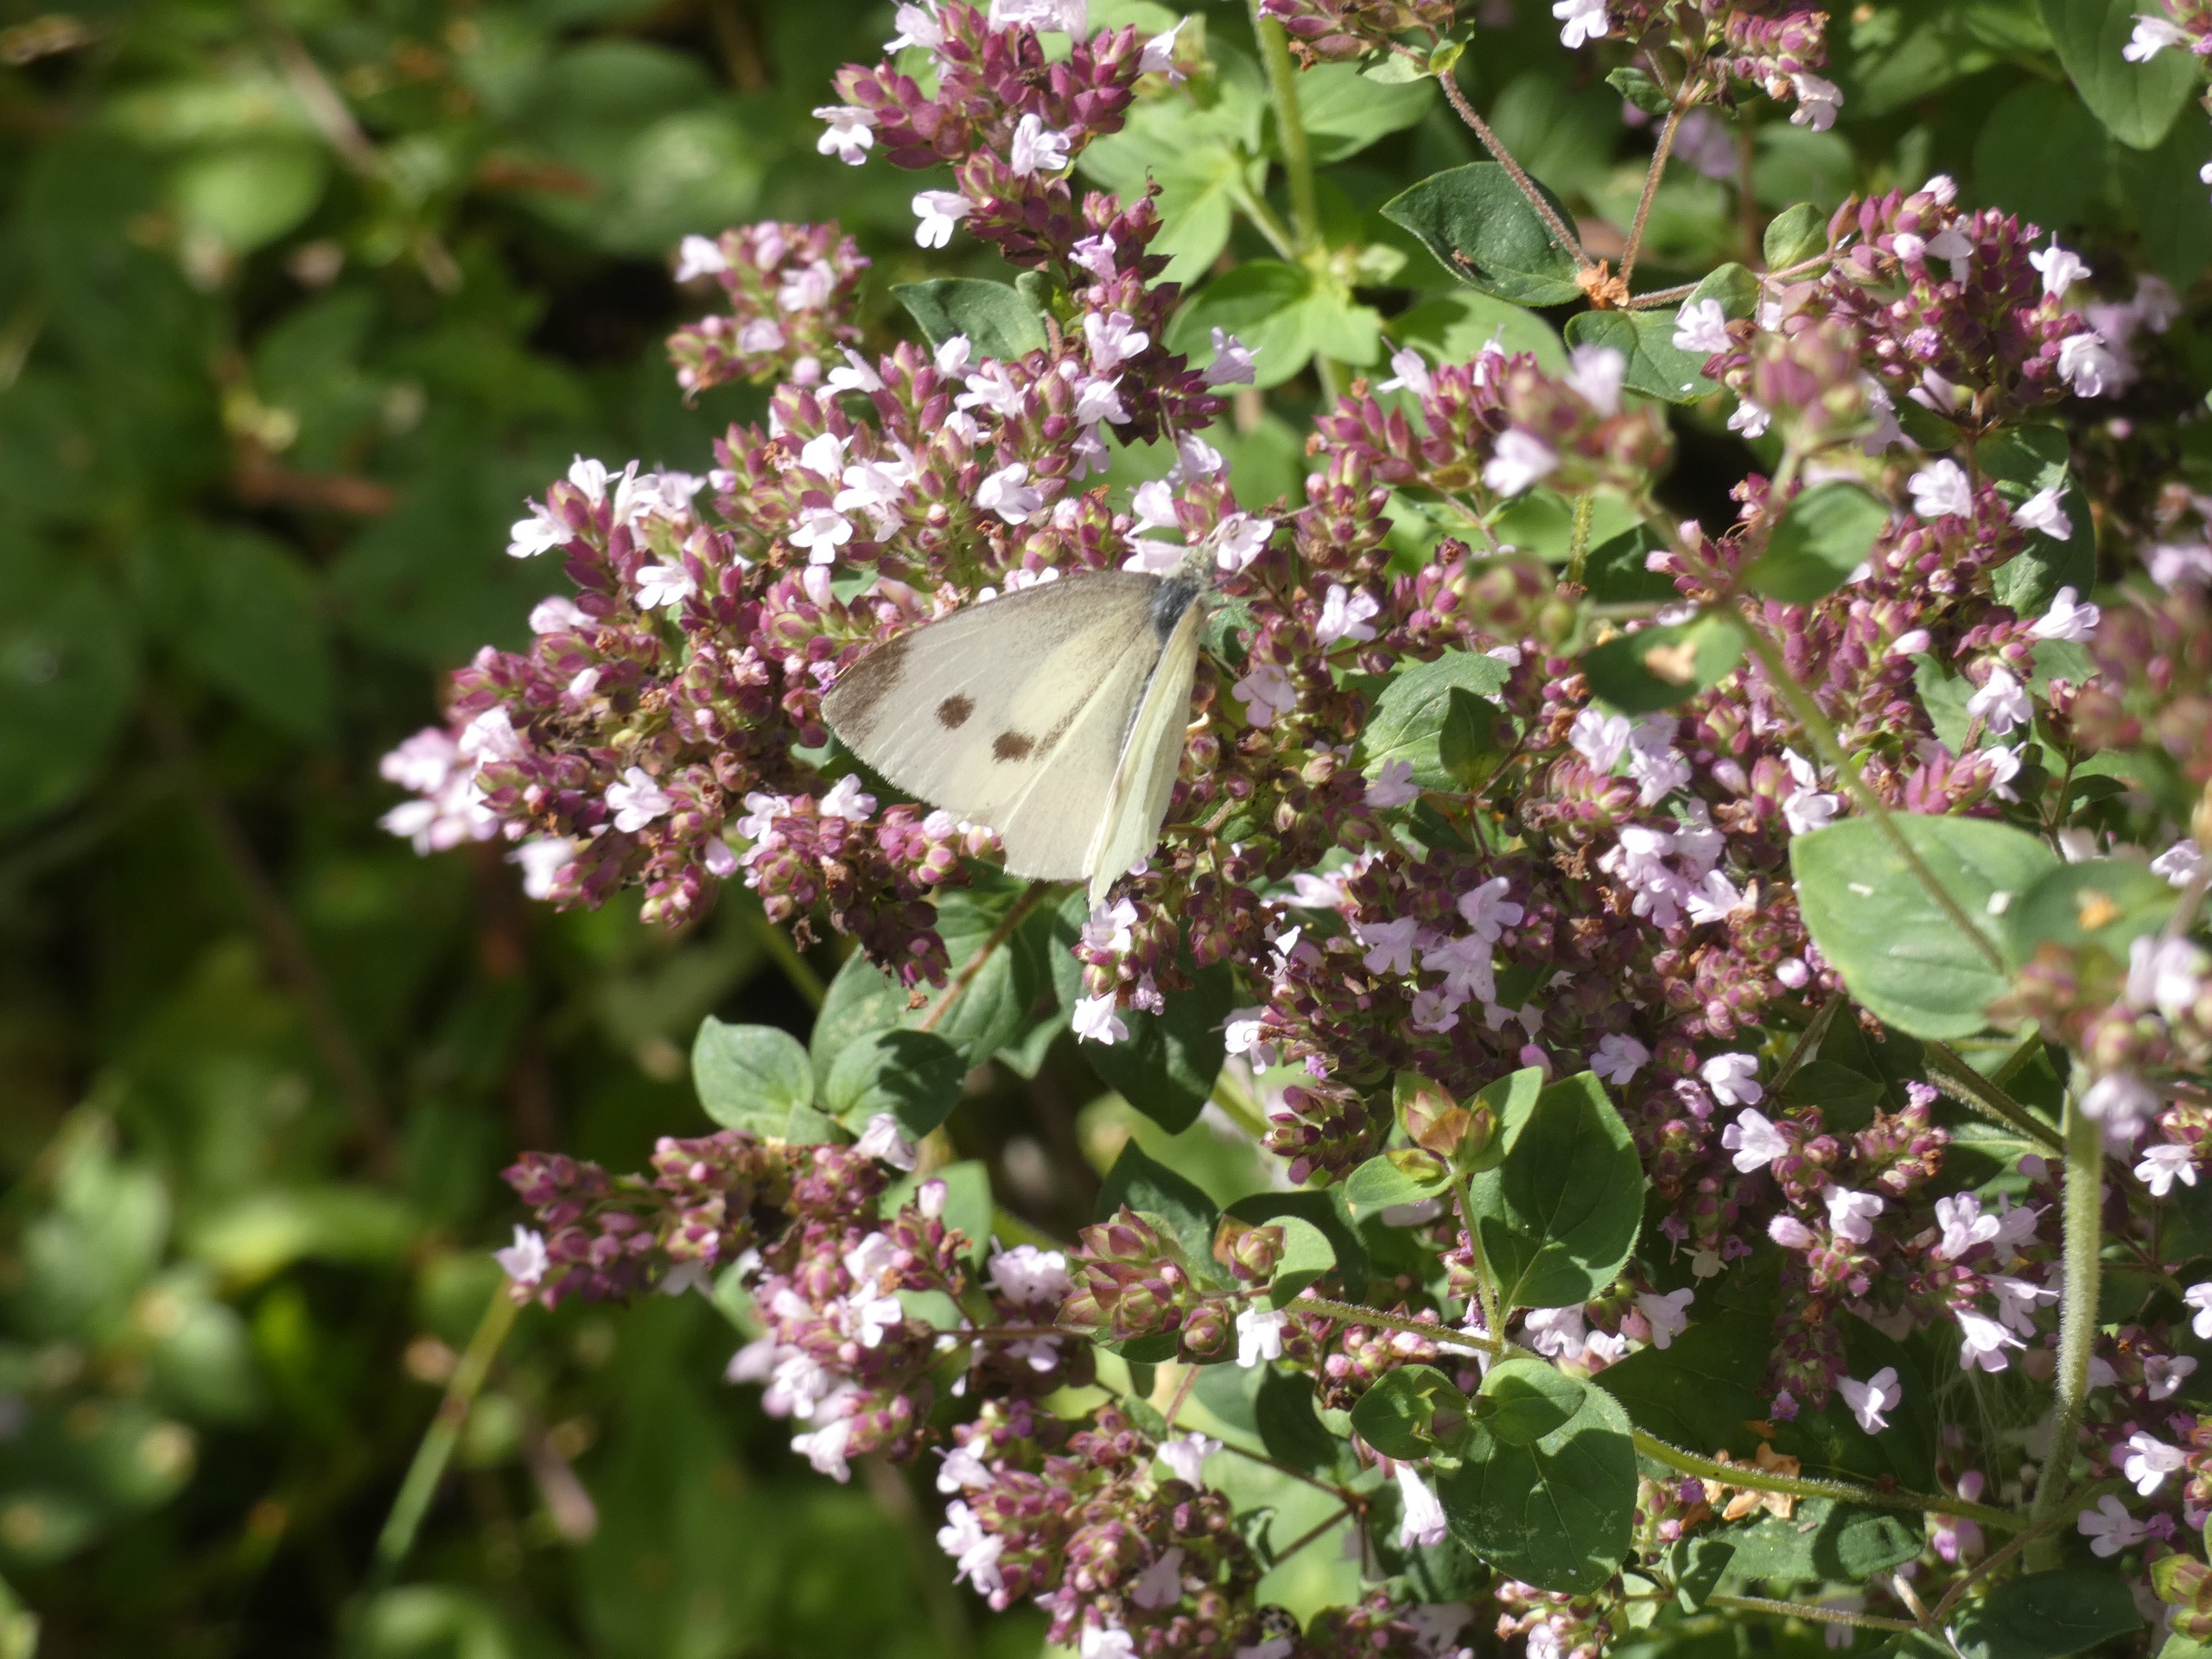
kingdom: Animalia
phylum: Arthropoda
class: Insecta
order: Lepidoptera
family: Pieridae
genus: Pieris
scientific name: Pieris rapae
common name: Lille kålsommerfugl
